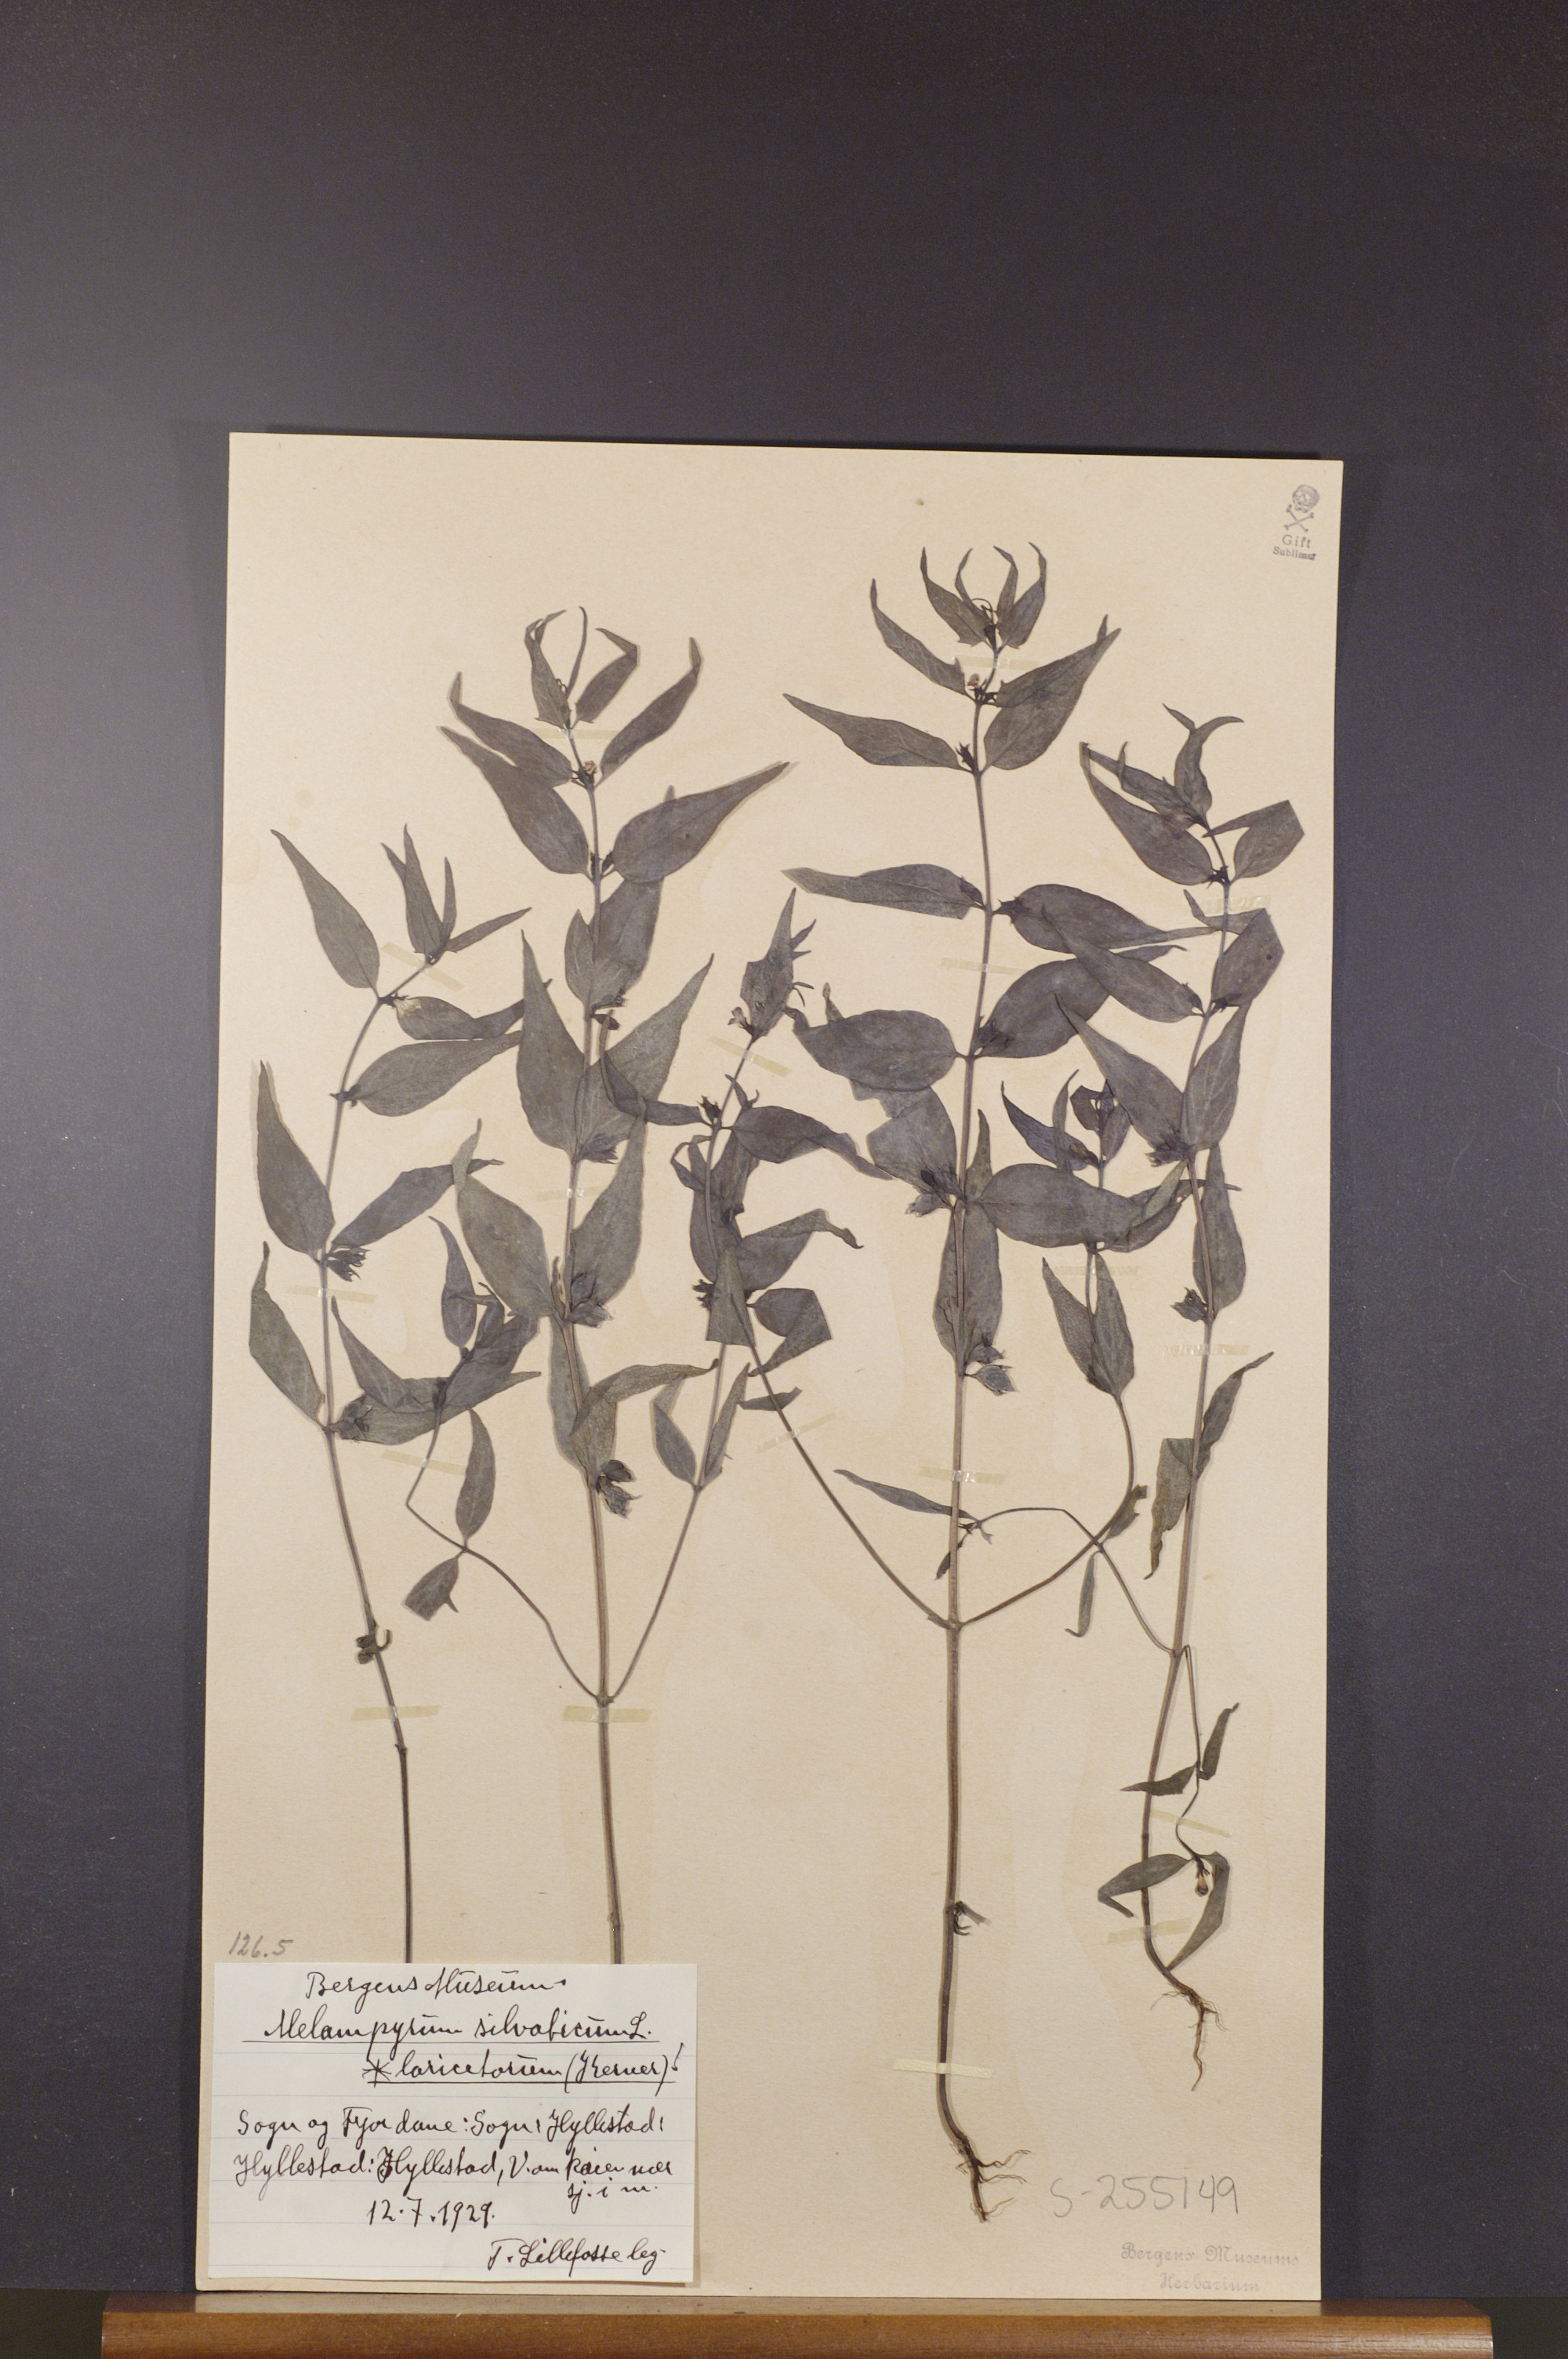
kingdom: Plantae
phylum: Tracheophyta
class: Magnoliopsida
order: Lamiales
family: Orobanchaceae
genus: Melampyrum
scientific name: Melampyrum sylvaticum
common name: Small cow-wheat
